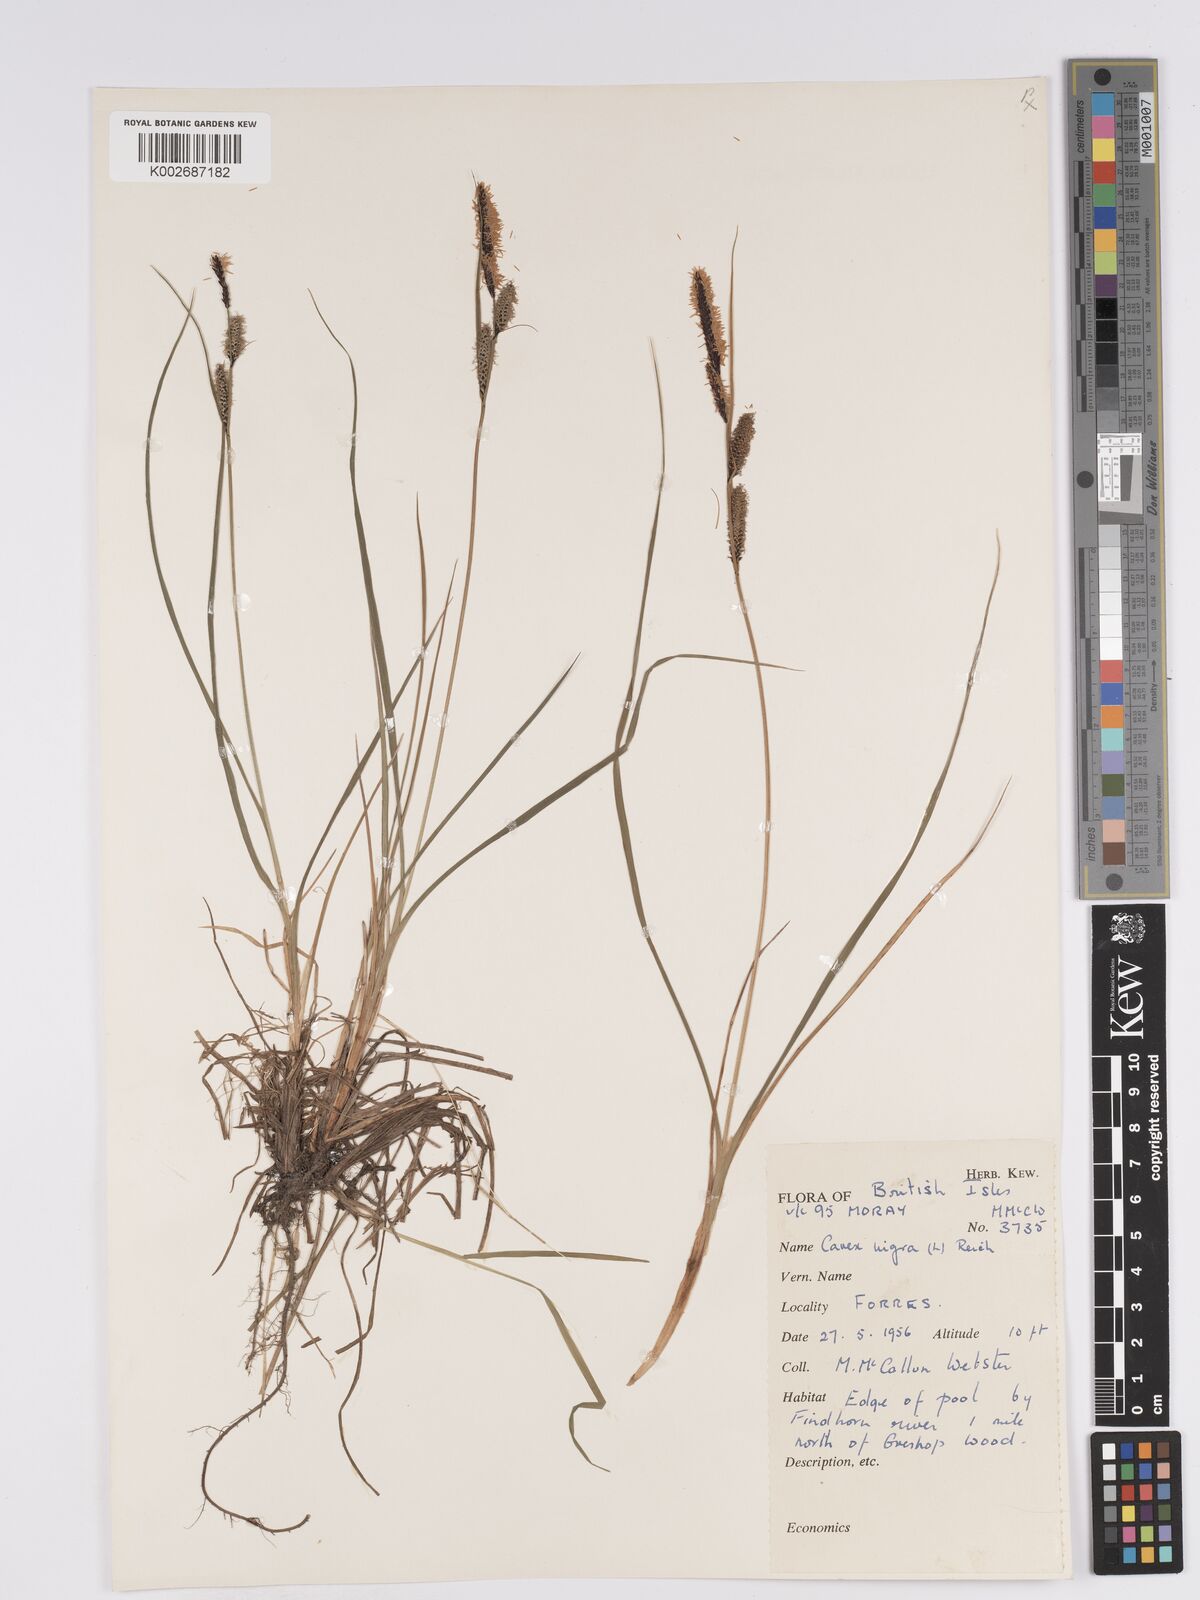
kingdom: Plantae
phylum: Tracheophyta
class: Liliopsida
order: Poales
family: Cyperaceae
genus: Carex
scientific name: Carex nigra
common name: Common sedge
